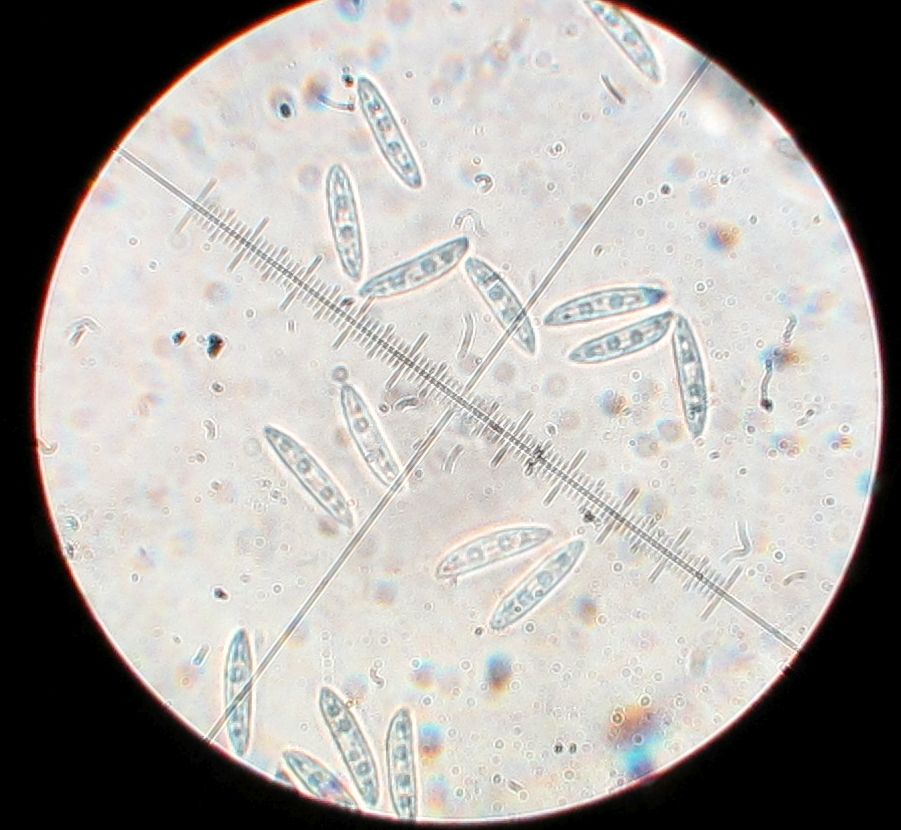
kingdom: Fungi
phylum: Ascomycota
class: Leotiomycetes
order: Helotiales
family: Helotiaceae
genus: Hymenoscyphus
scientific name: Hymenoscyphus menthae
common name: eng-stilkskive
